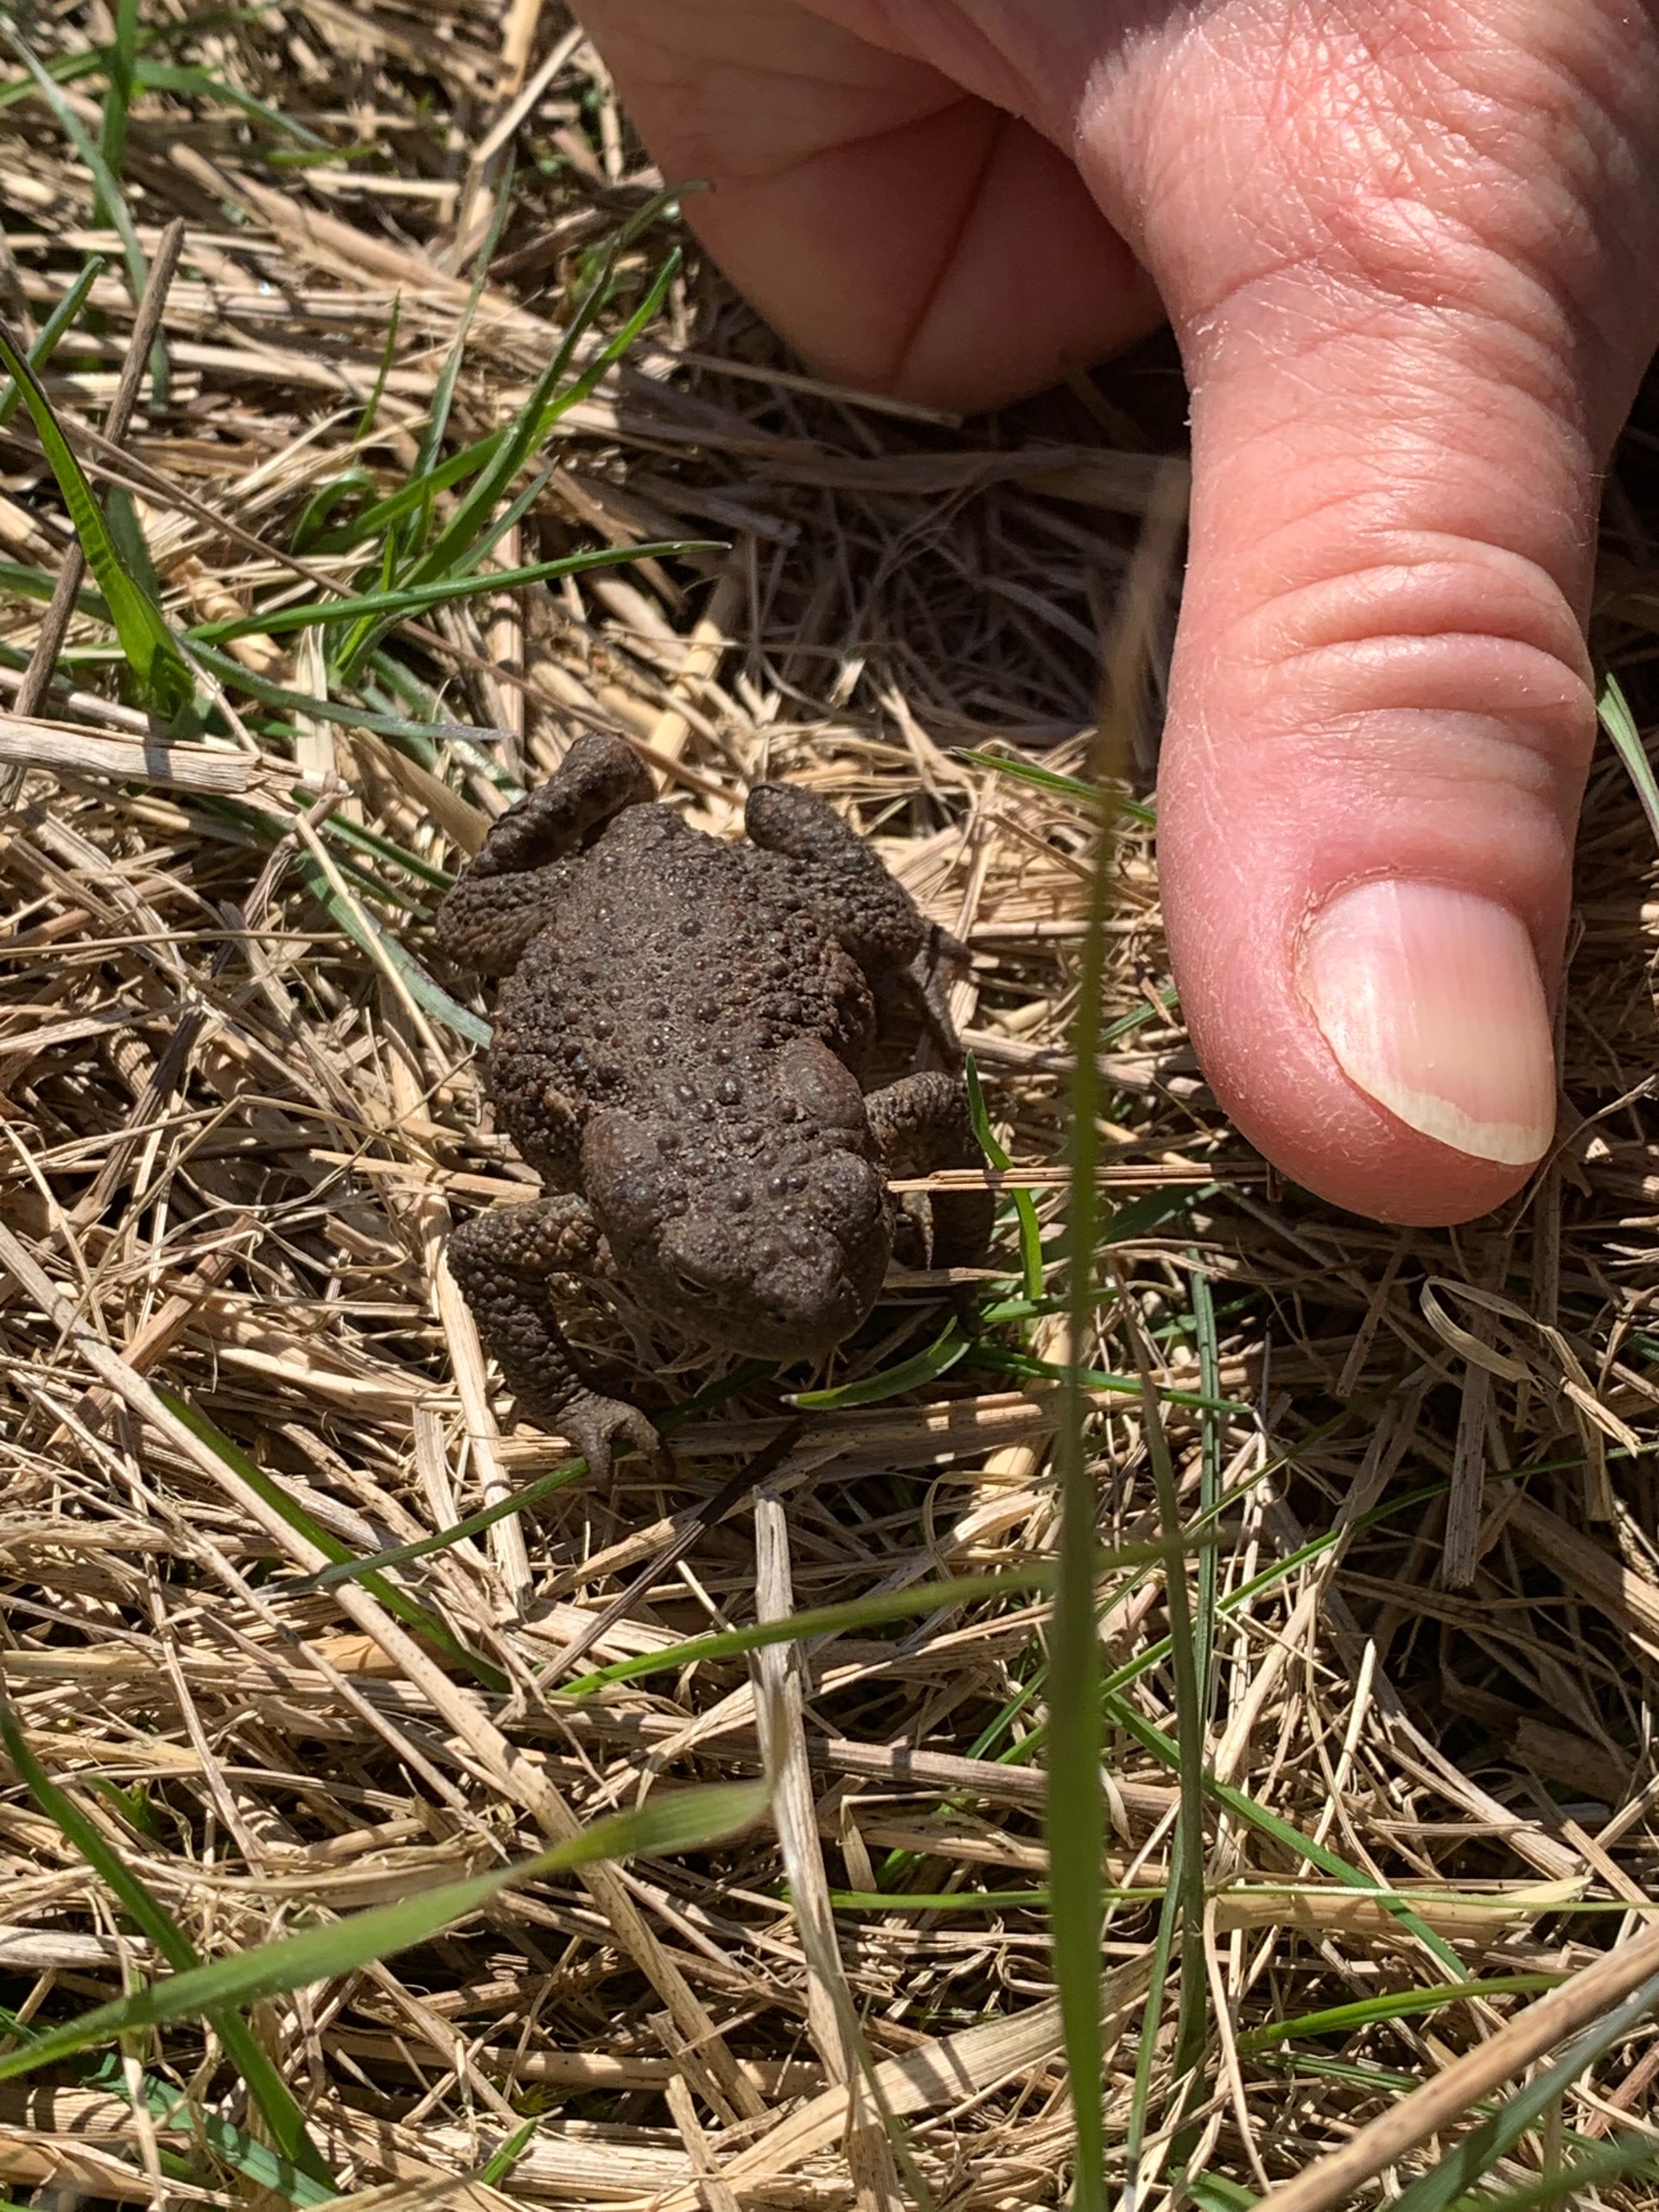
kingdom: Animalia
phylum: Chordata
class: Amphibia
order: Anura
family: Bufonidae
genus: Bufo
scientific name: Bufo bufo
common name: Skrubtudse
